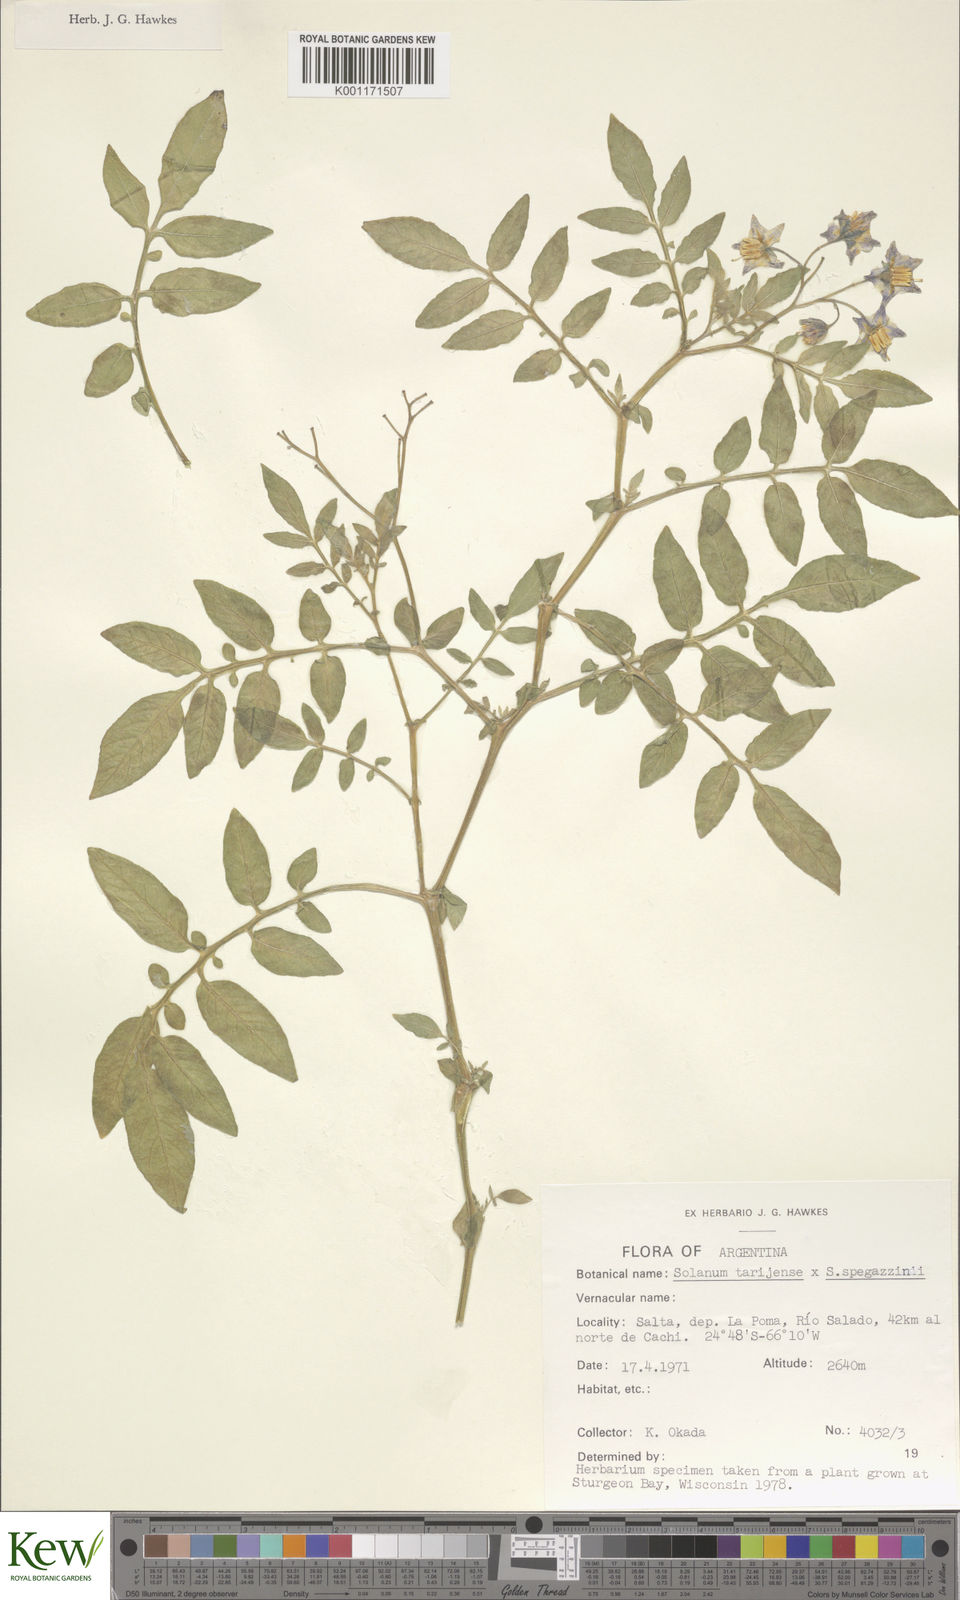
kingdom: Plantae
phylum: Tracheophyta
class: Magnoliopsida
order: Solanales
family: Solanaceae
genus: Solanum
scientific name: Solanum tarijense
